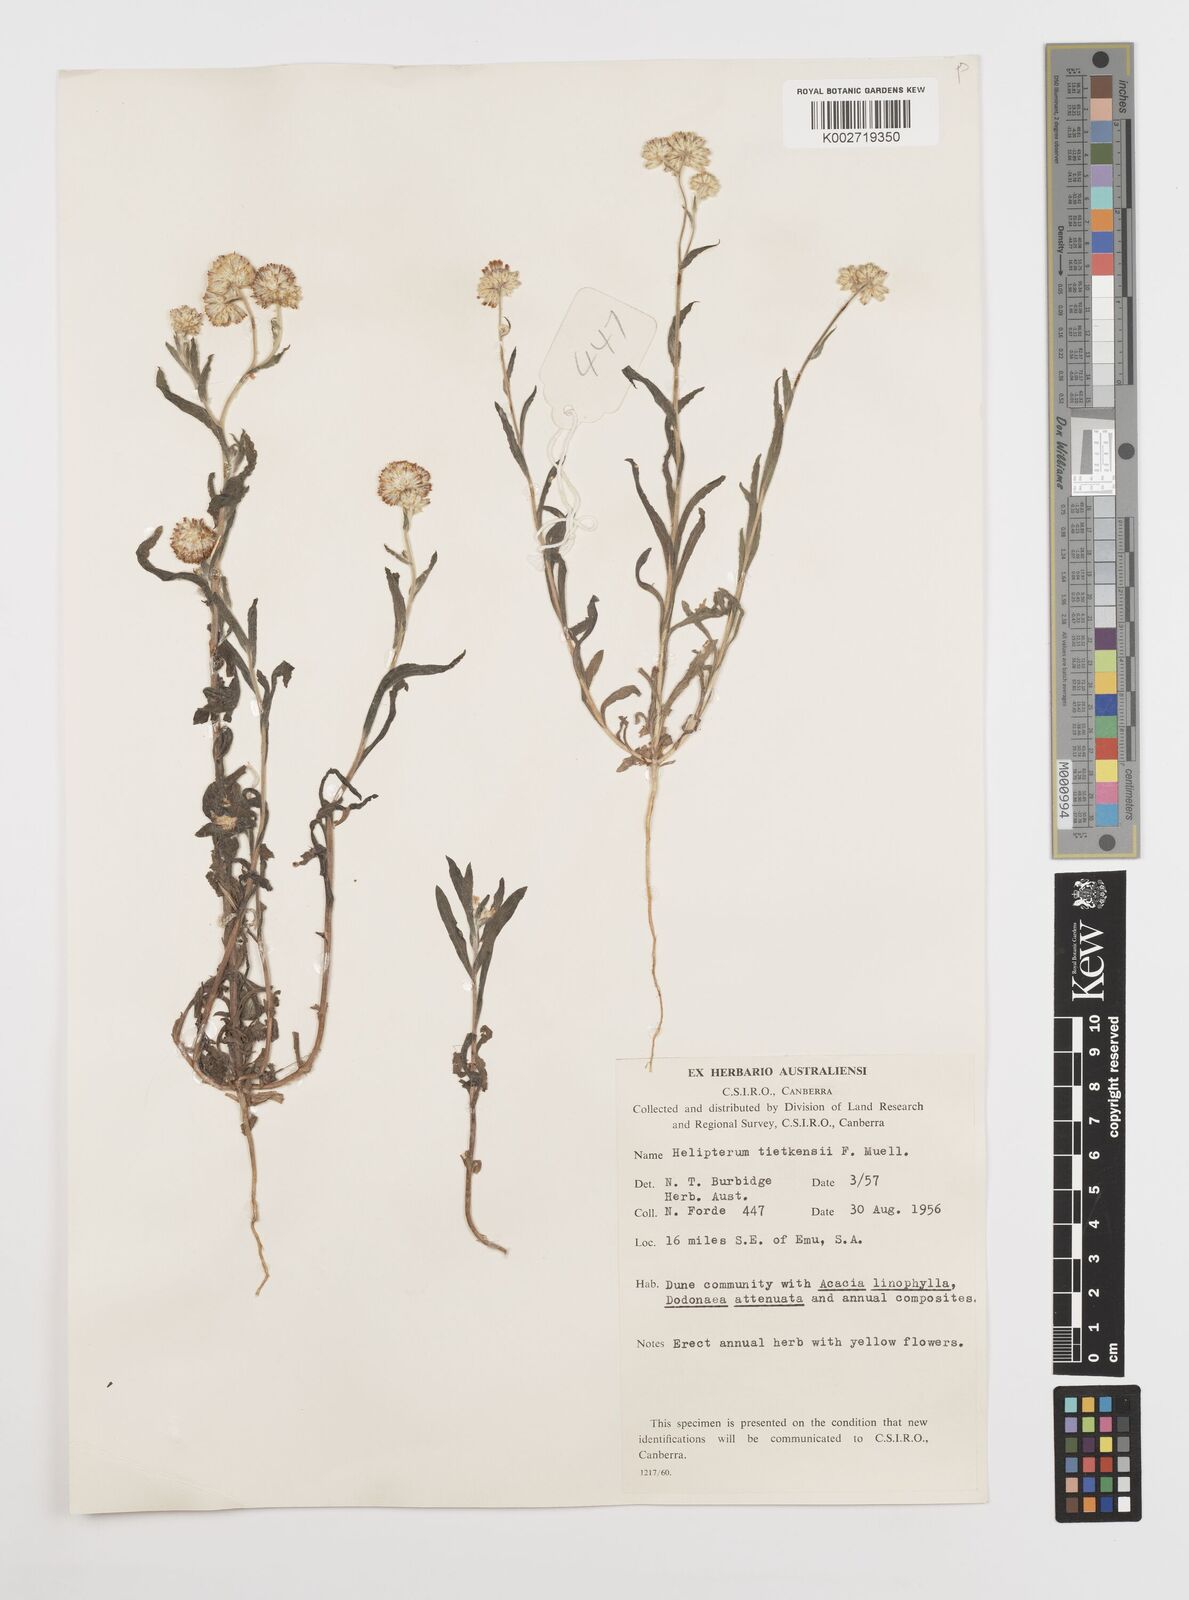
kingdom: Plantae
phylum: Tracheophyta
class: Magnoliopsida
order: Asterales
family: Asteraceae
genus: Rhodanthe
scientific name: Rhodanthe tietkensii
